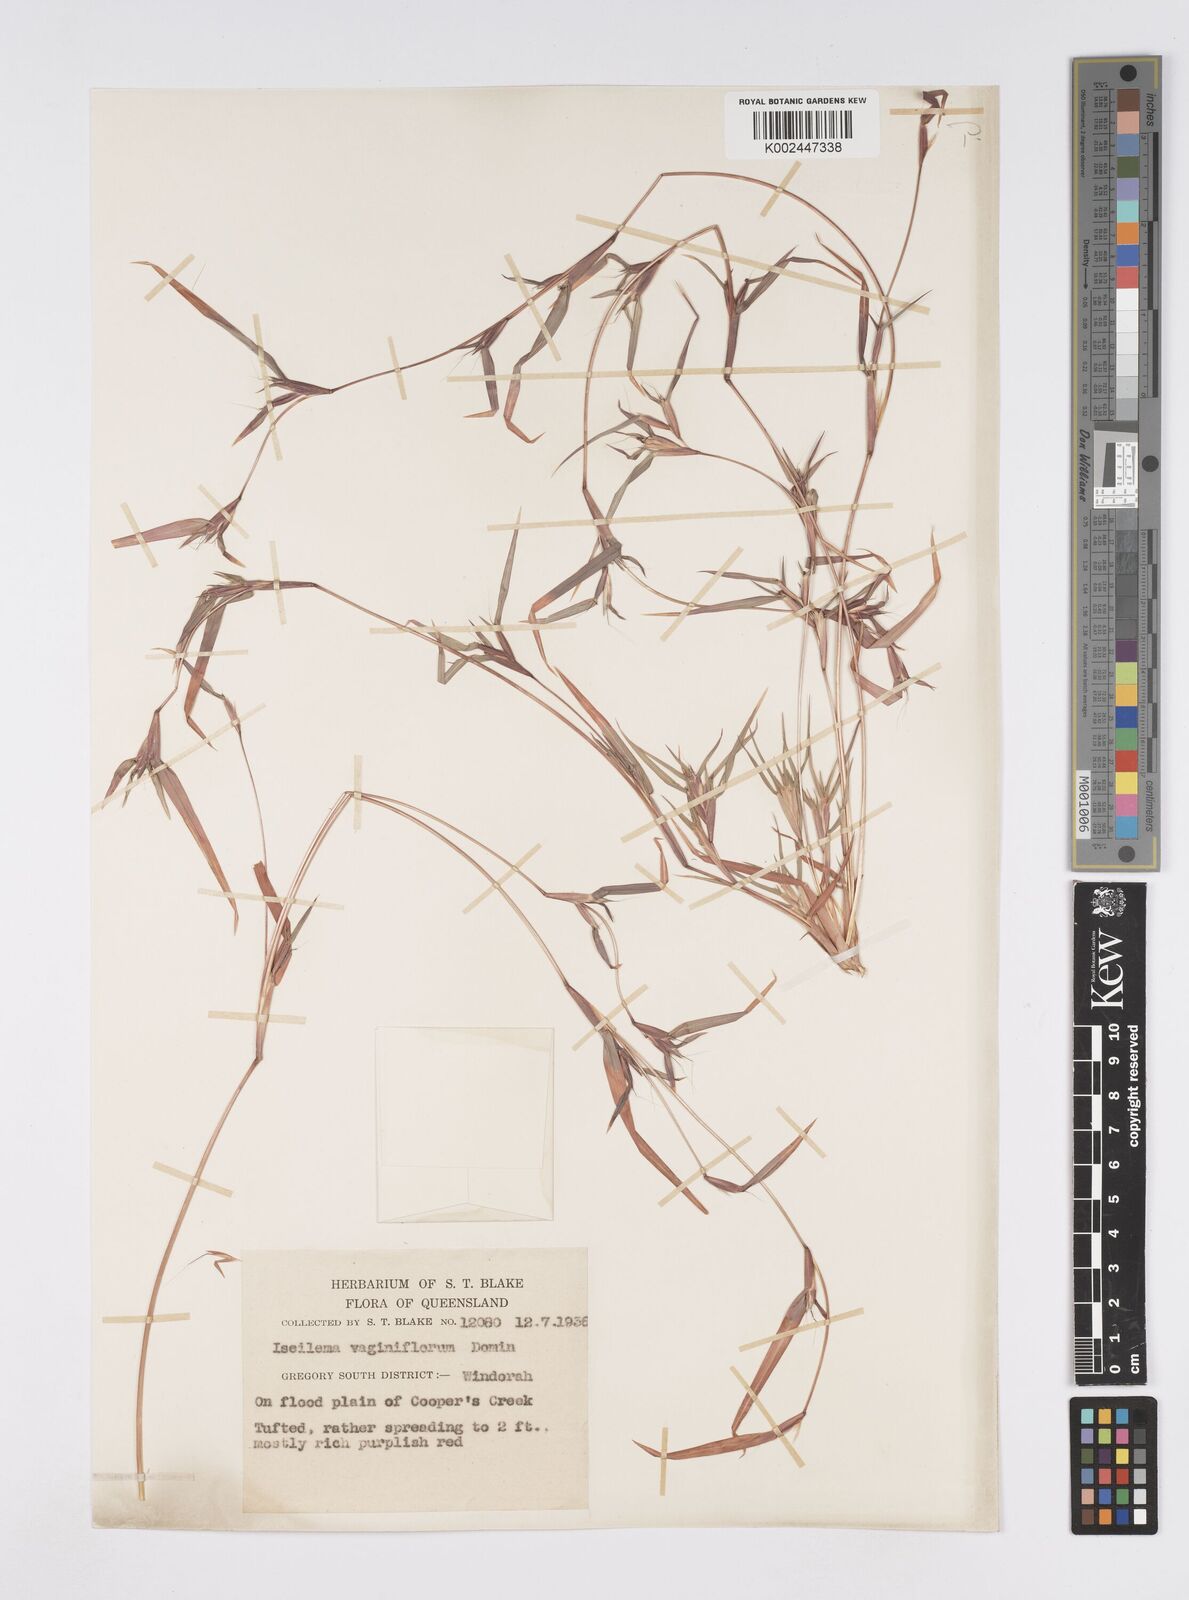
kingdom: Plantae
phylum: Tracheophyta
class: Liliopsida
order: Poales
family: Poaceae
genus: Iseilema
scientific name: Iseilema vaginiflorum
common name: Red flinders grass
